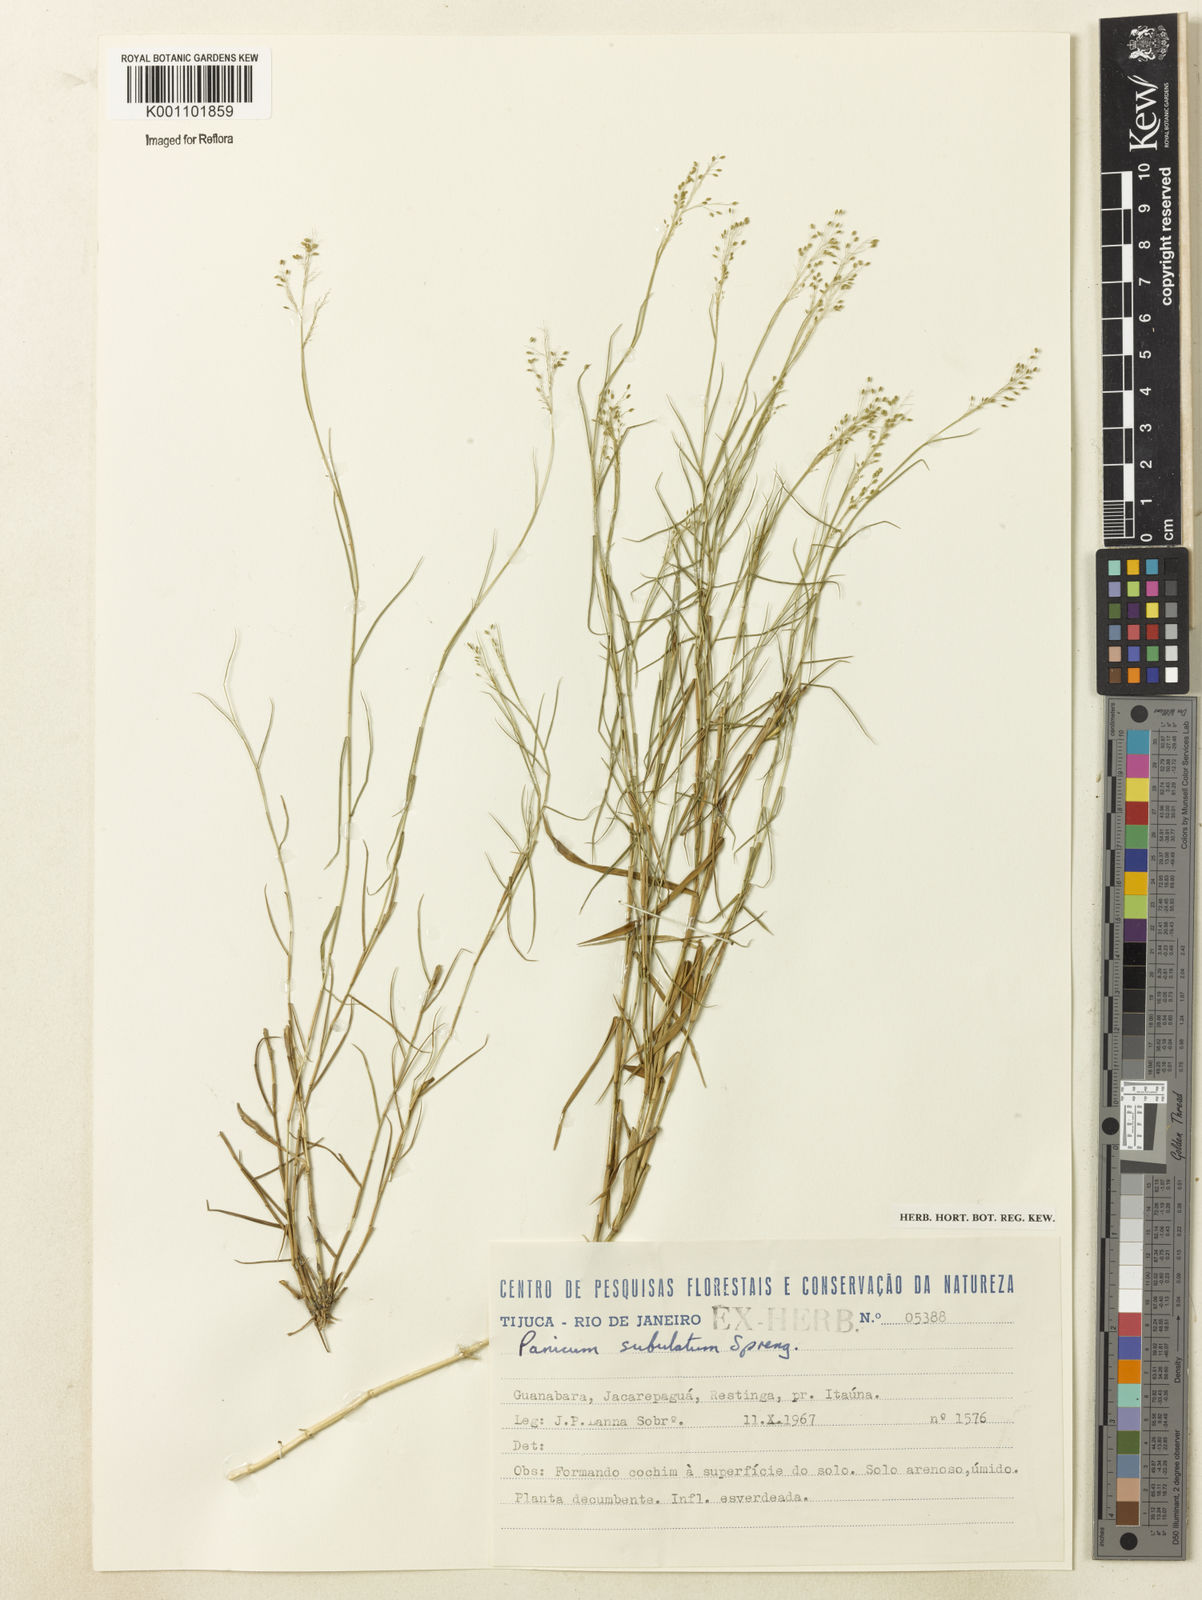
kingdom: Plantae
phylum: Tracheophyta
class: Liliopsida
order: Poales
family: Poaceae
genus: Trichanthecium
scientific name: Trichanthecium distichophyllum
